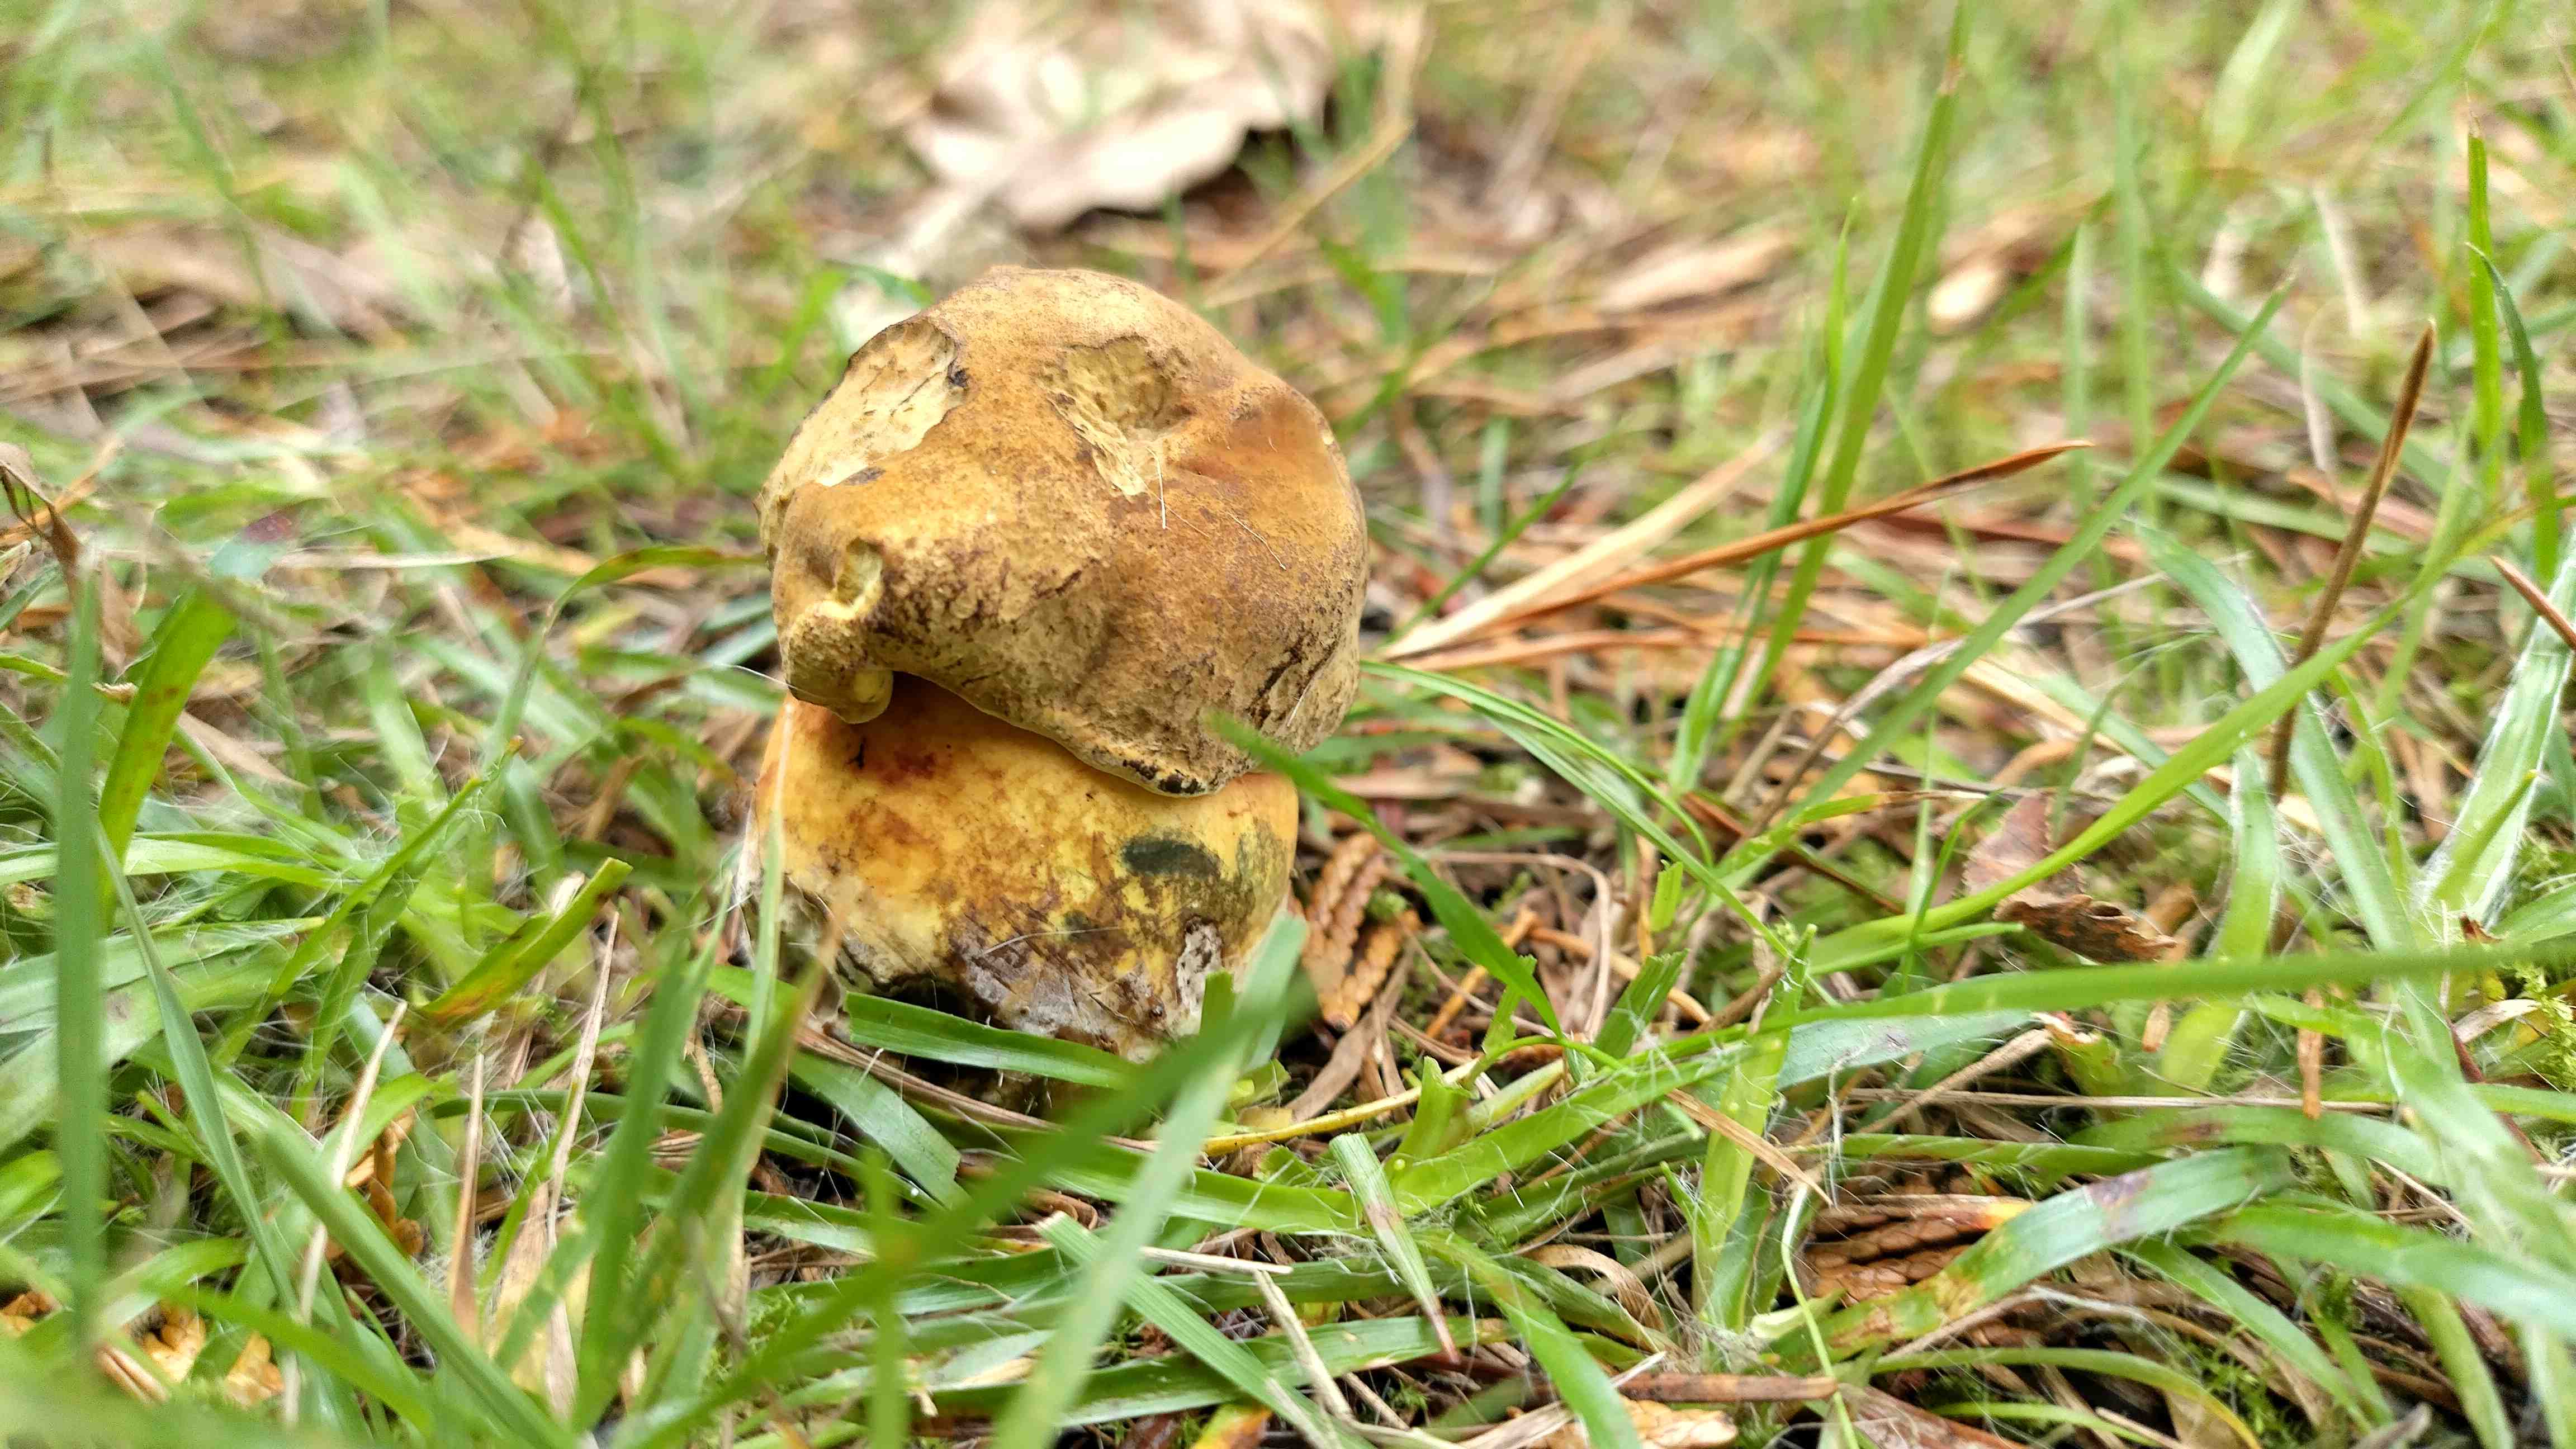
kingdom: Fungi
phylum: Basidiomycota
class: Agaricomycetes
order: Boletales
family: Boletaceae
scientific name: Boletaceae
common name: rørhatfamilien
